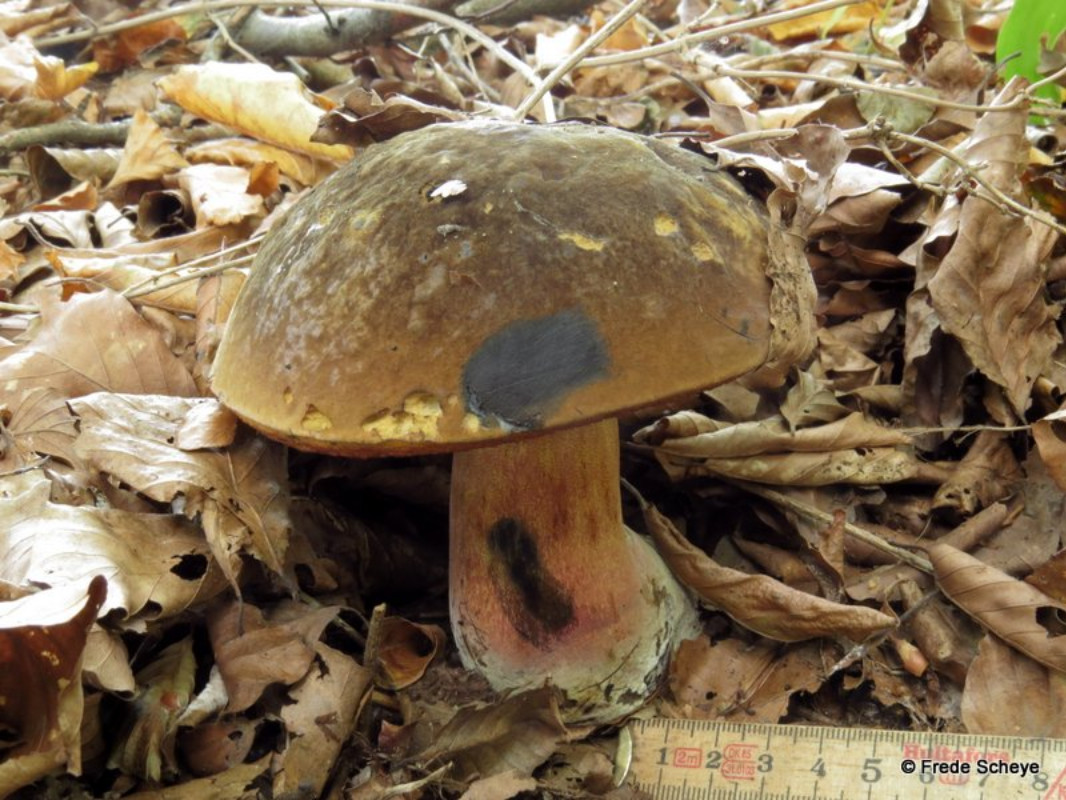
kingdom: Fungi
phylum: Basidiomycota
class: Agaricomycetes
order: Boletales
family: Boletaceae
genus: Neoboletus
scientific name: Neoboletus erythropus
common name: punktstokket indigorørhat
